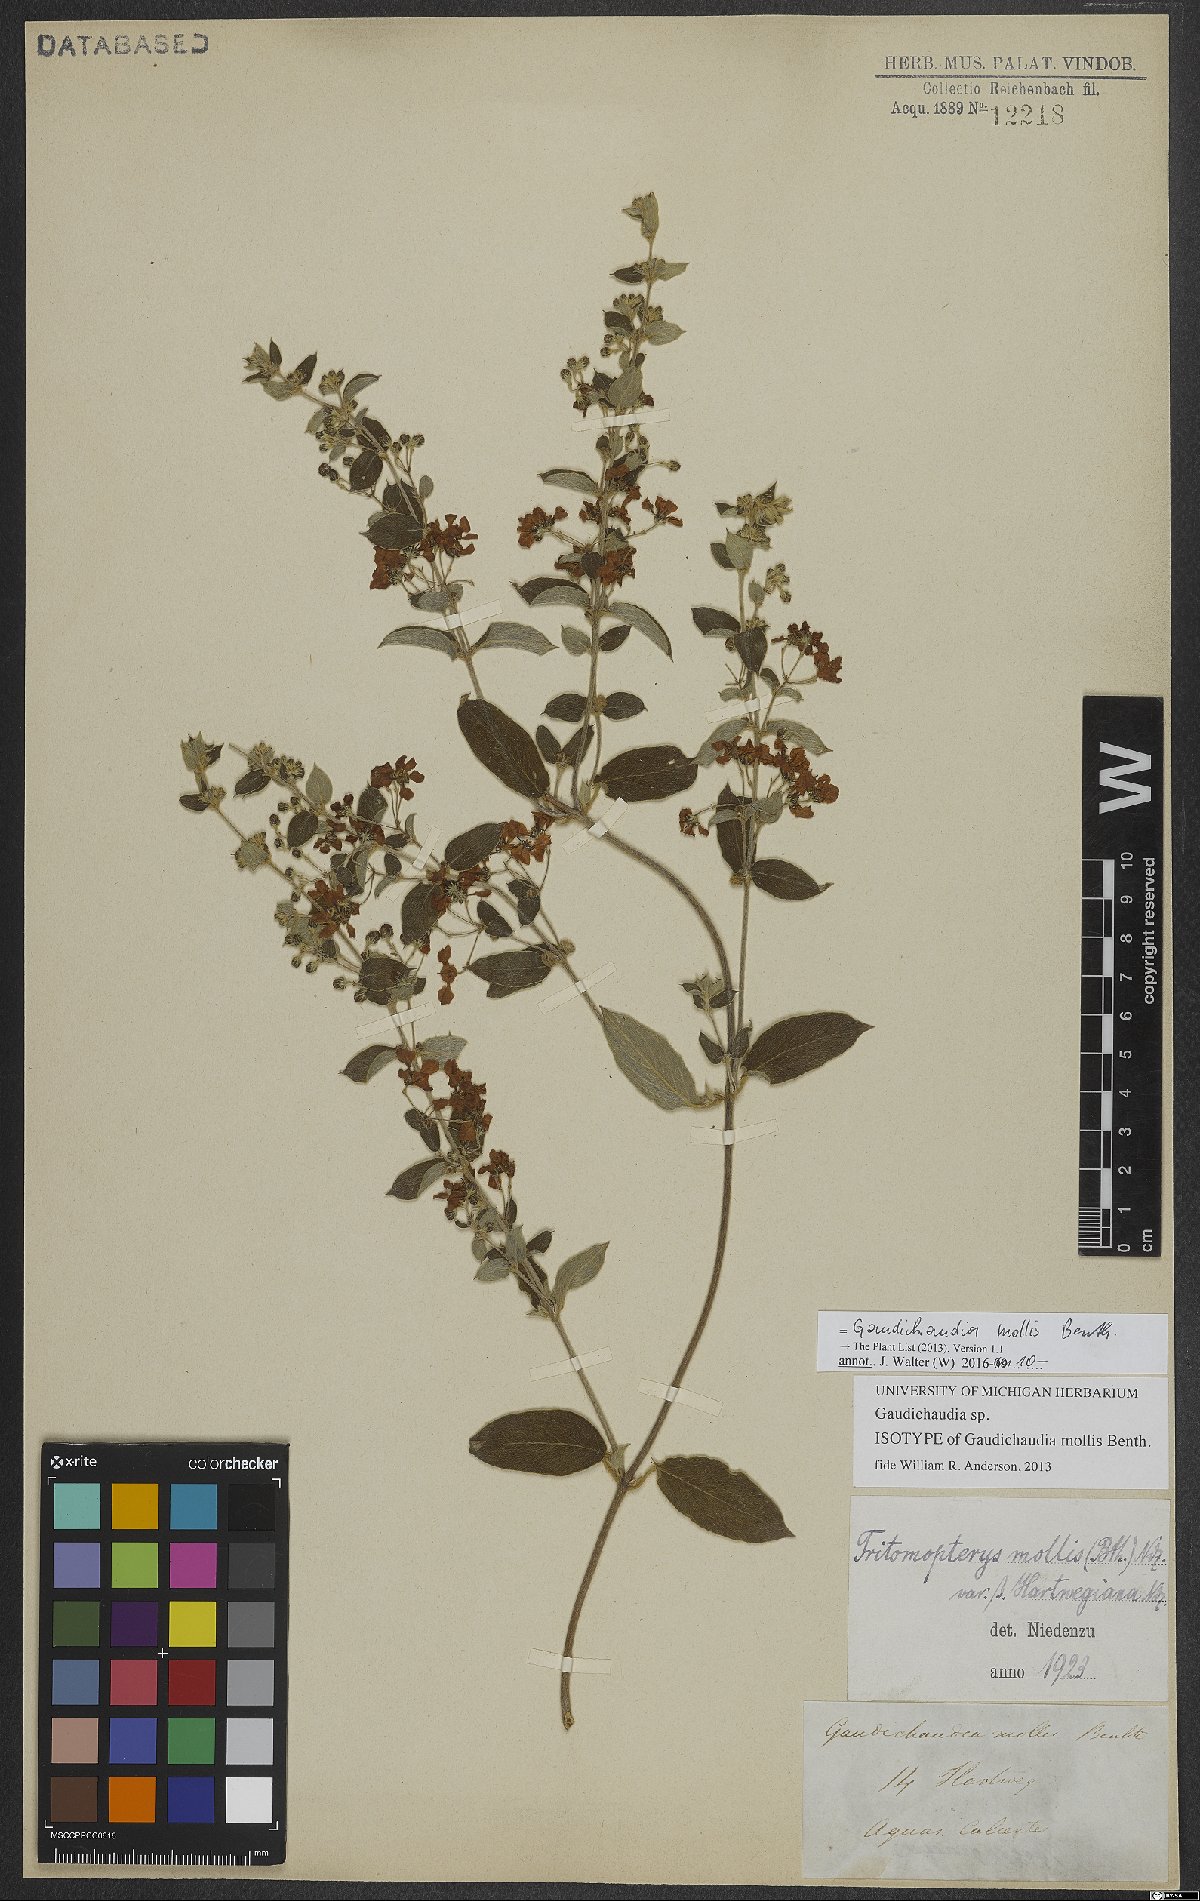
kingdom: Plantae
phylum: Tracheophyta
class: Magnoliopsida
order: Malpighiales
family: Malpighiaceae
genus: Gaudichaudia
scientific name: Gaudichaudia mollis
